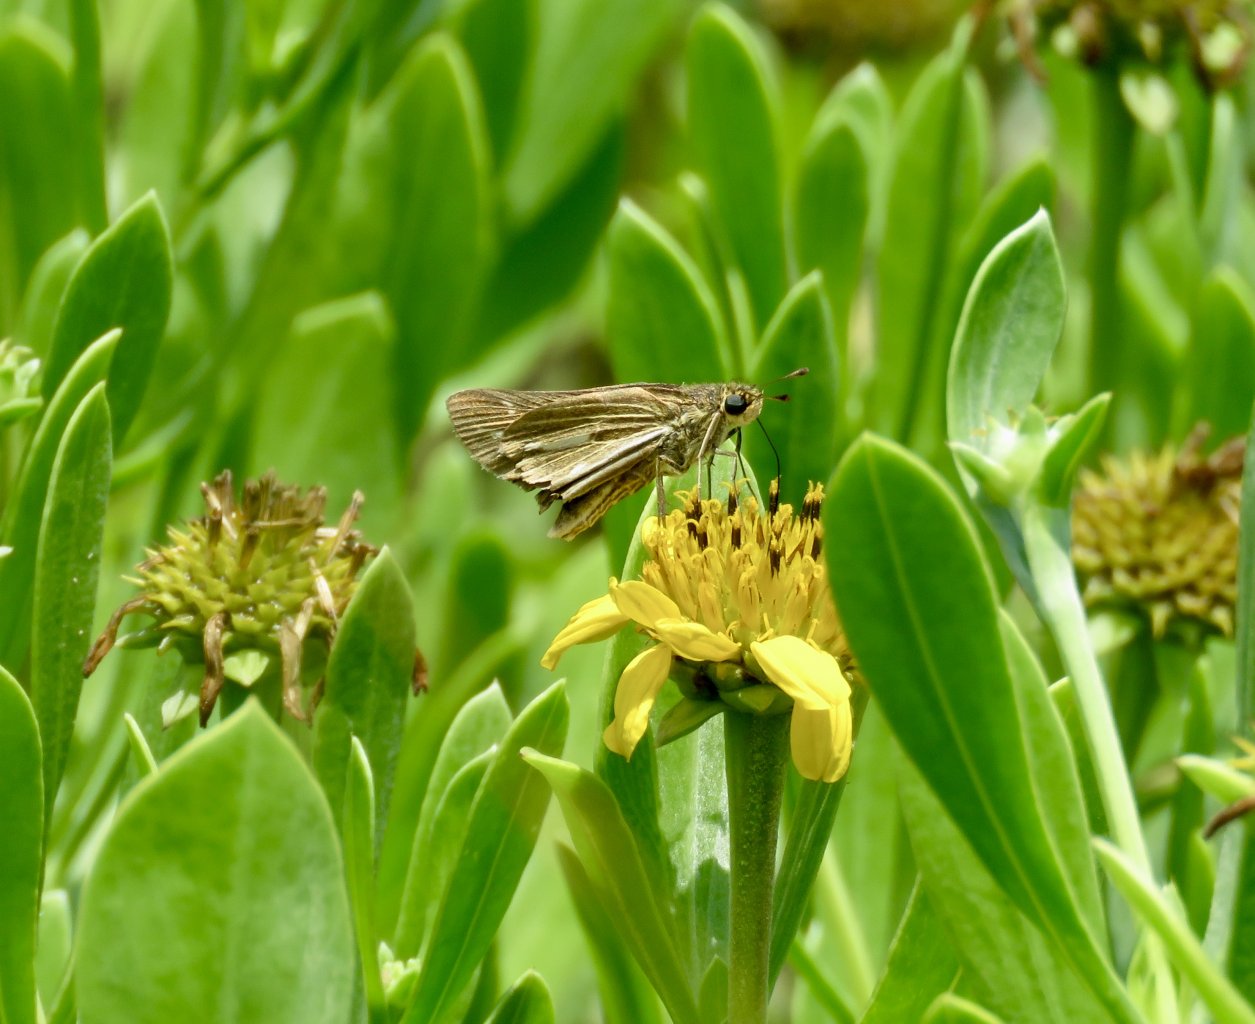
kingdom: Animalia
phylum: Arthropoda
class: Insecta
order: Lepidoptera
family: Hesperiidae
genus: Panoquina
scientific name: Panoquina panoquin
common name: Salt Marsh Skipper
